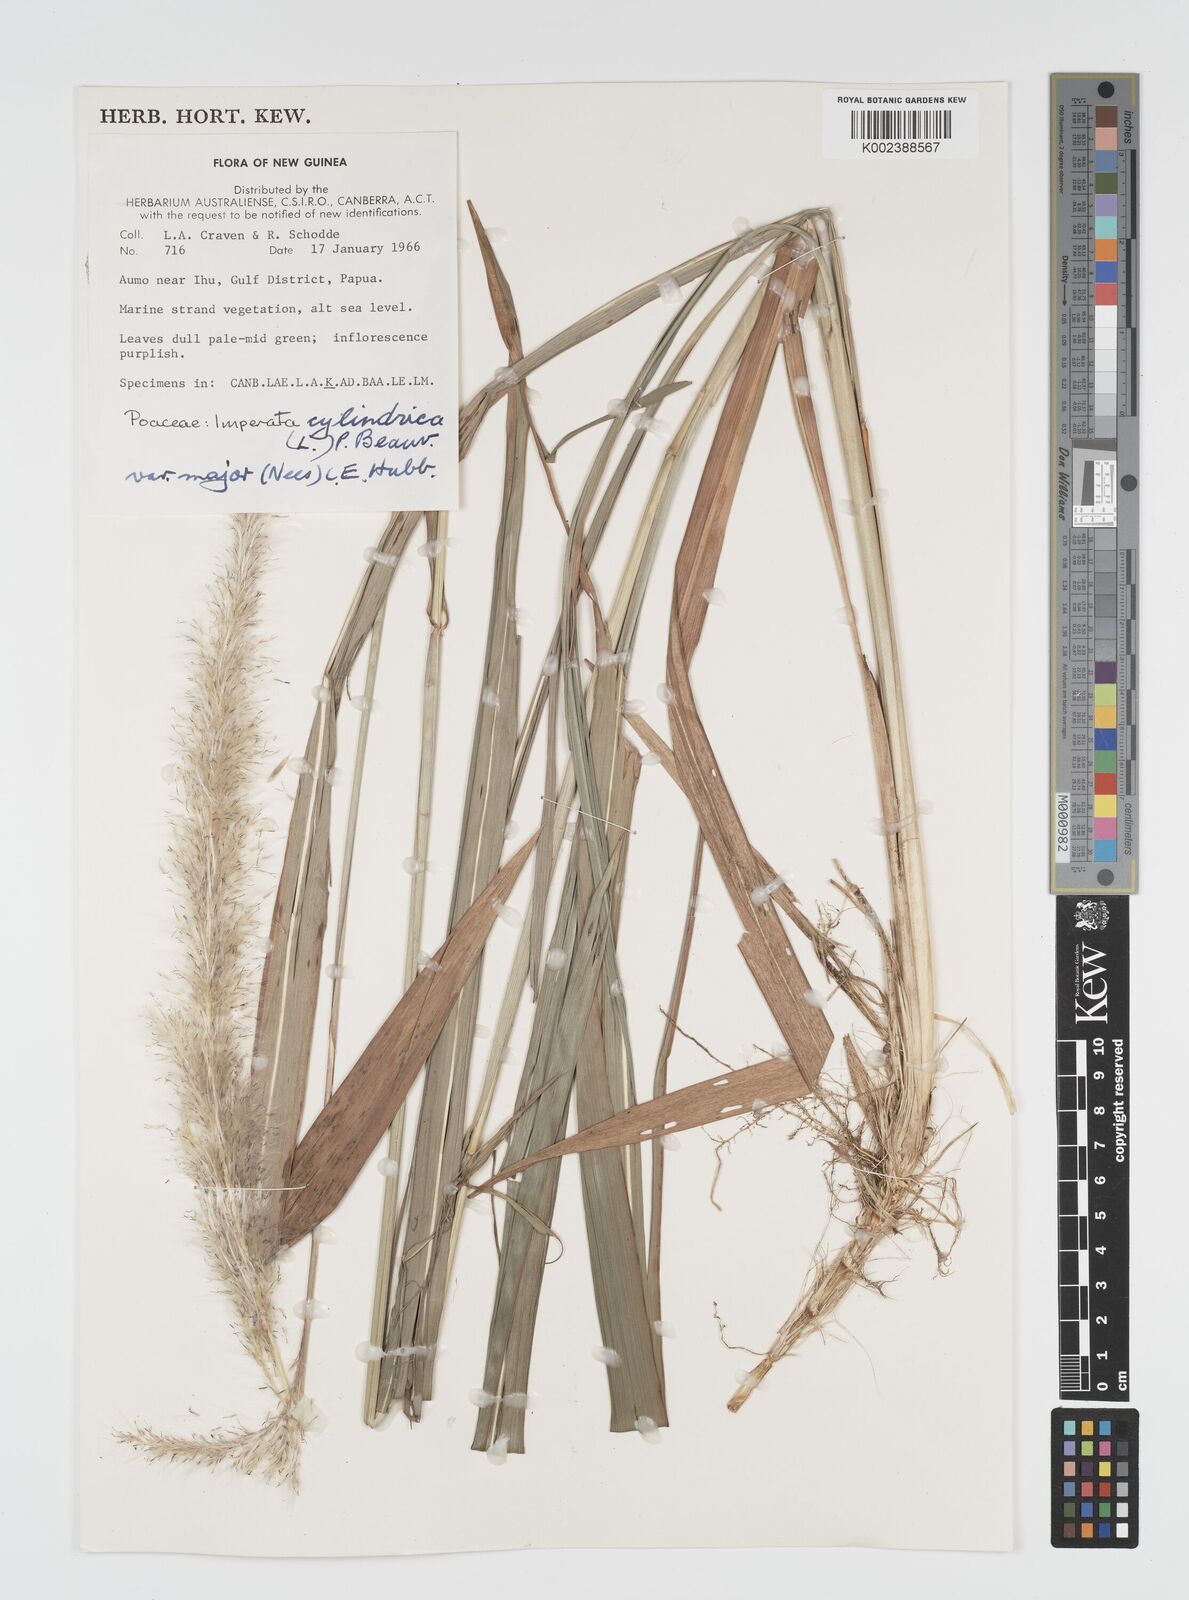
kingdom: Plantae
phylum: Tracheophyta
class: Liliopsida
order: Poales
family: Poaceae
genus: Imperata
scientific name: Imperata cylindrica
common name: Cogongrass
